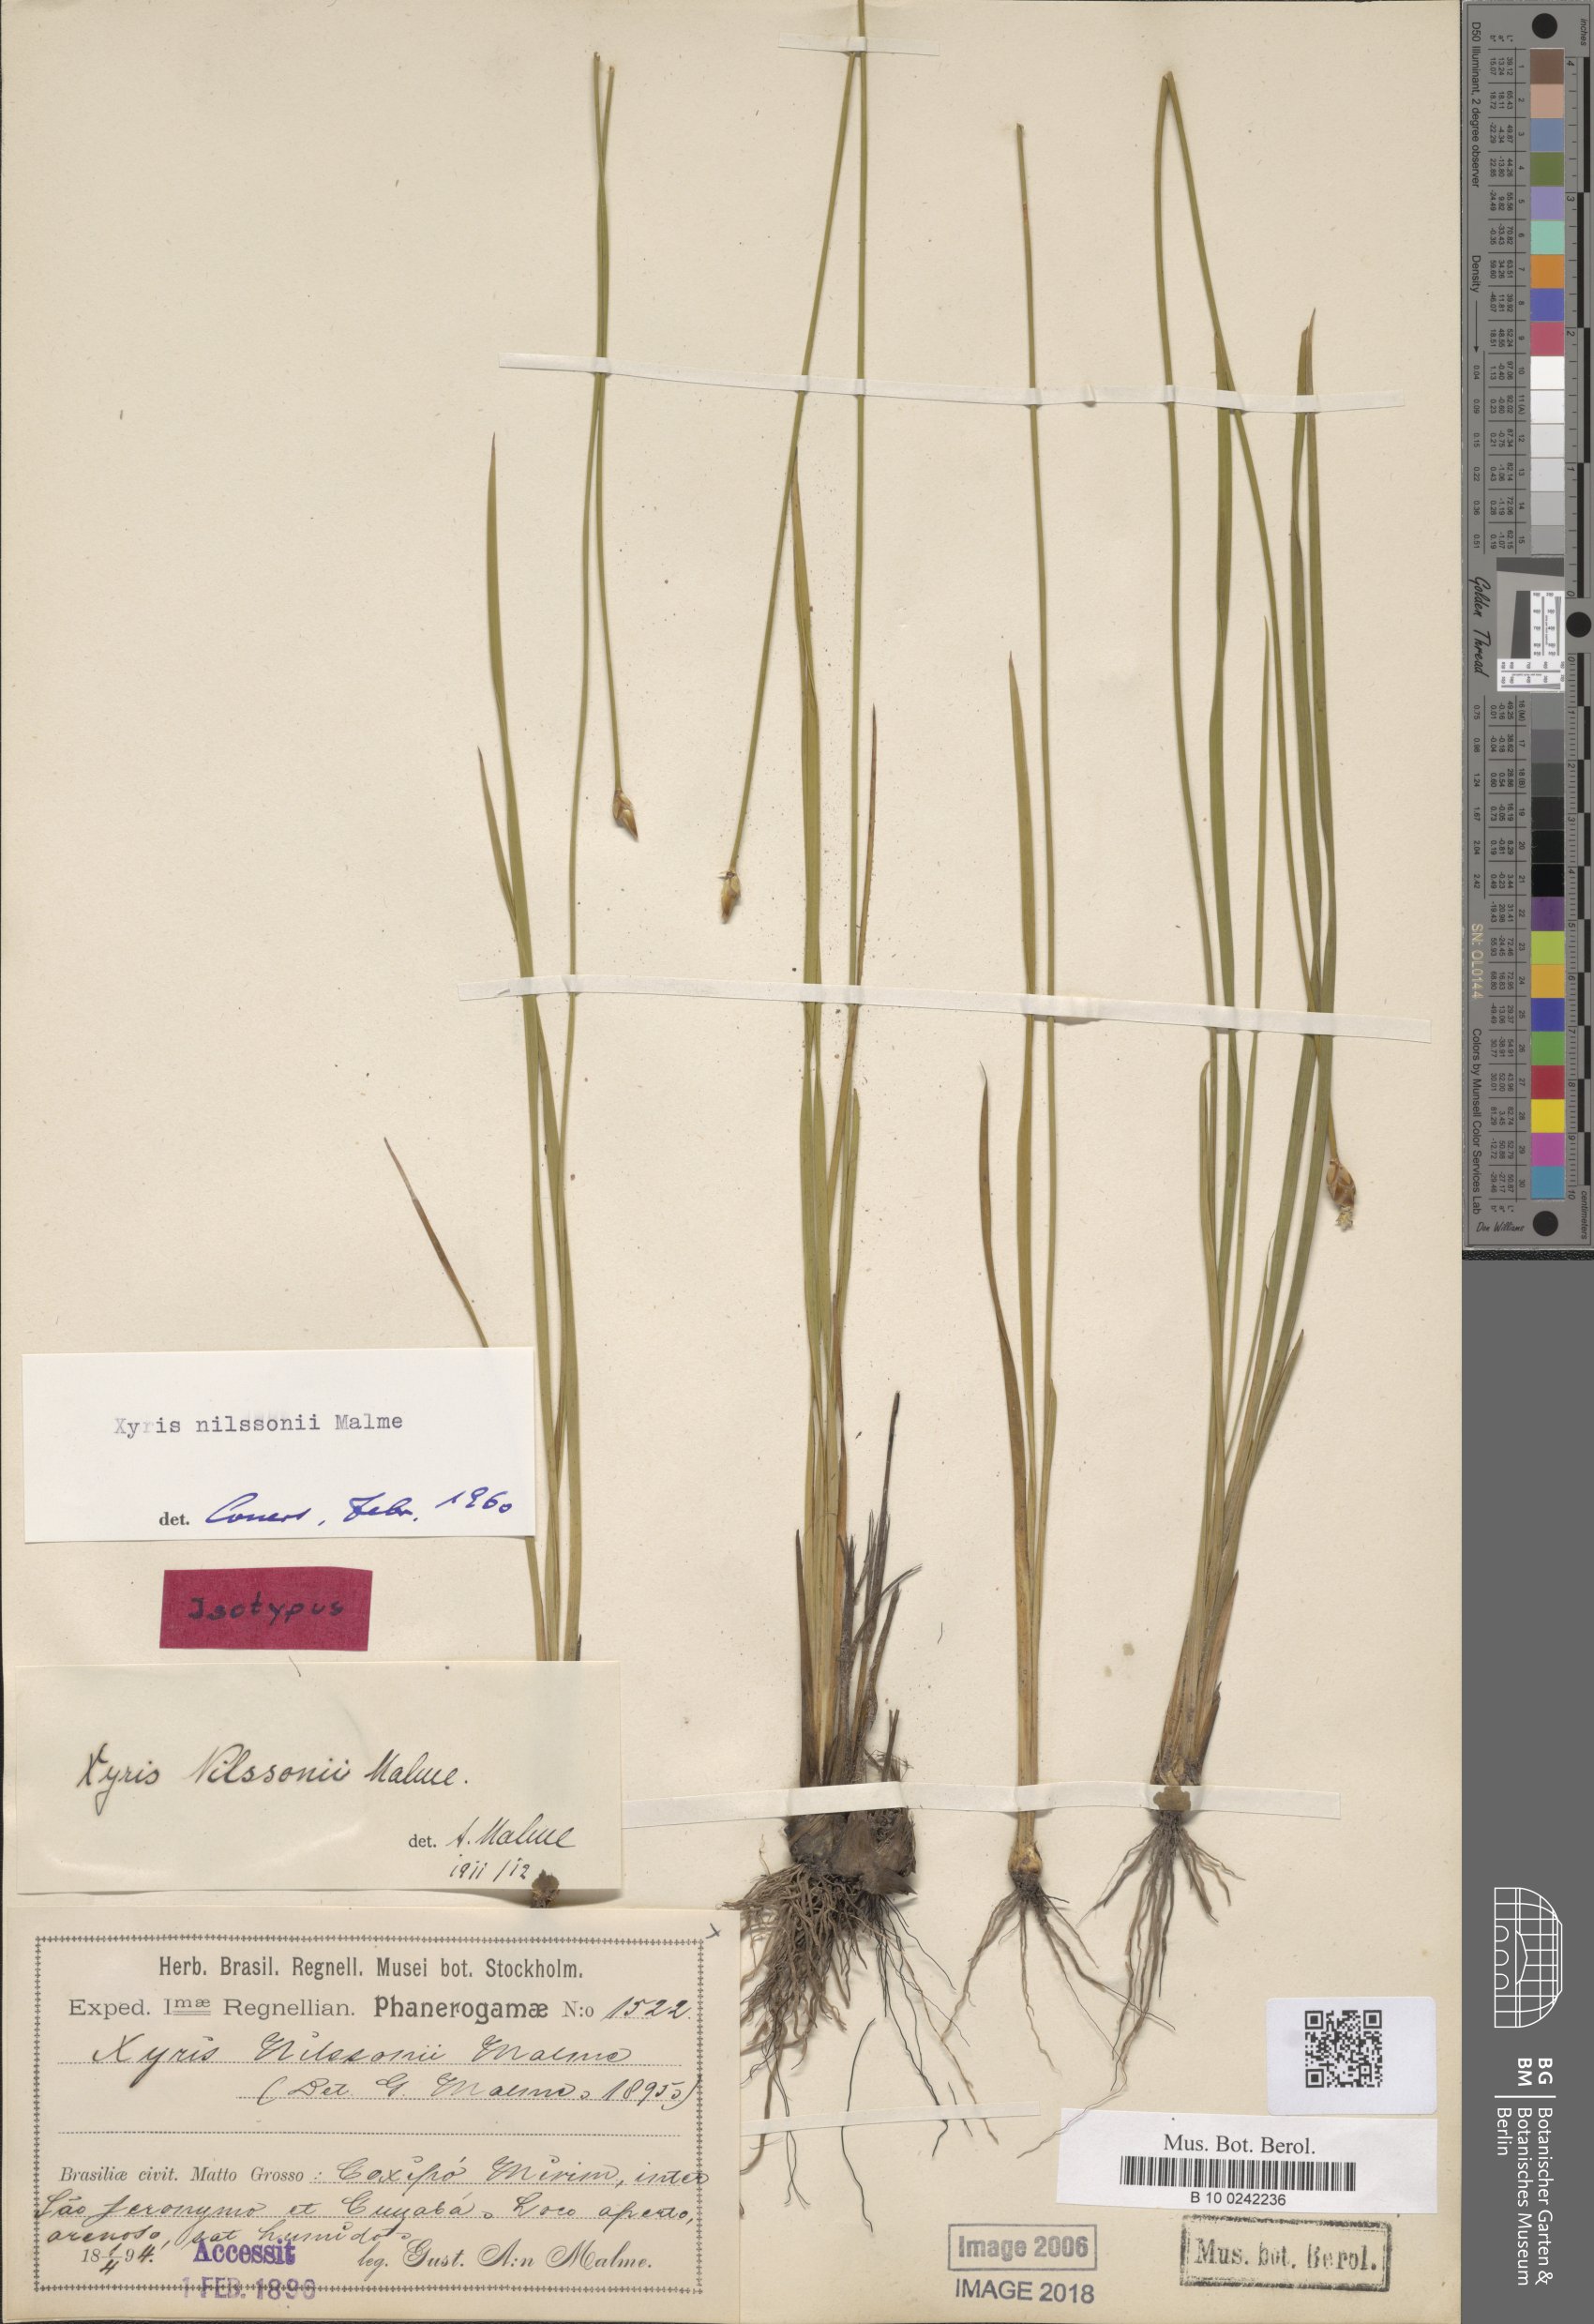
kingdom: Plantae
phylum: Tracheophyta
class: Liliopsida
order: Poales
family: Xyridaceae
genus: Xyris
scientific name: Xyris nilssonii
